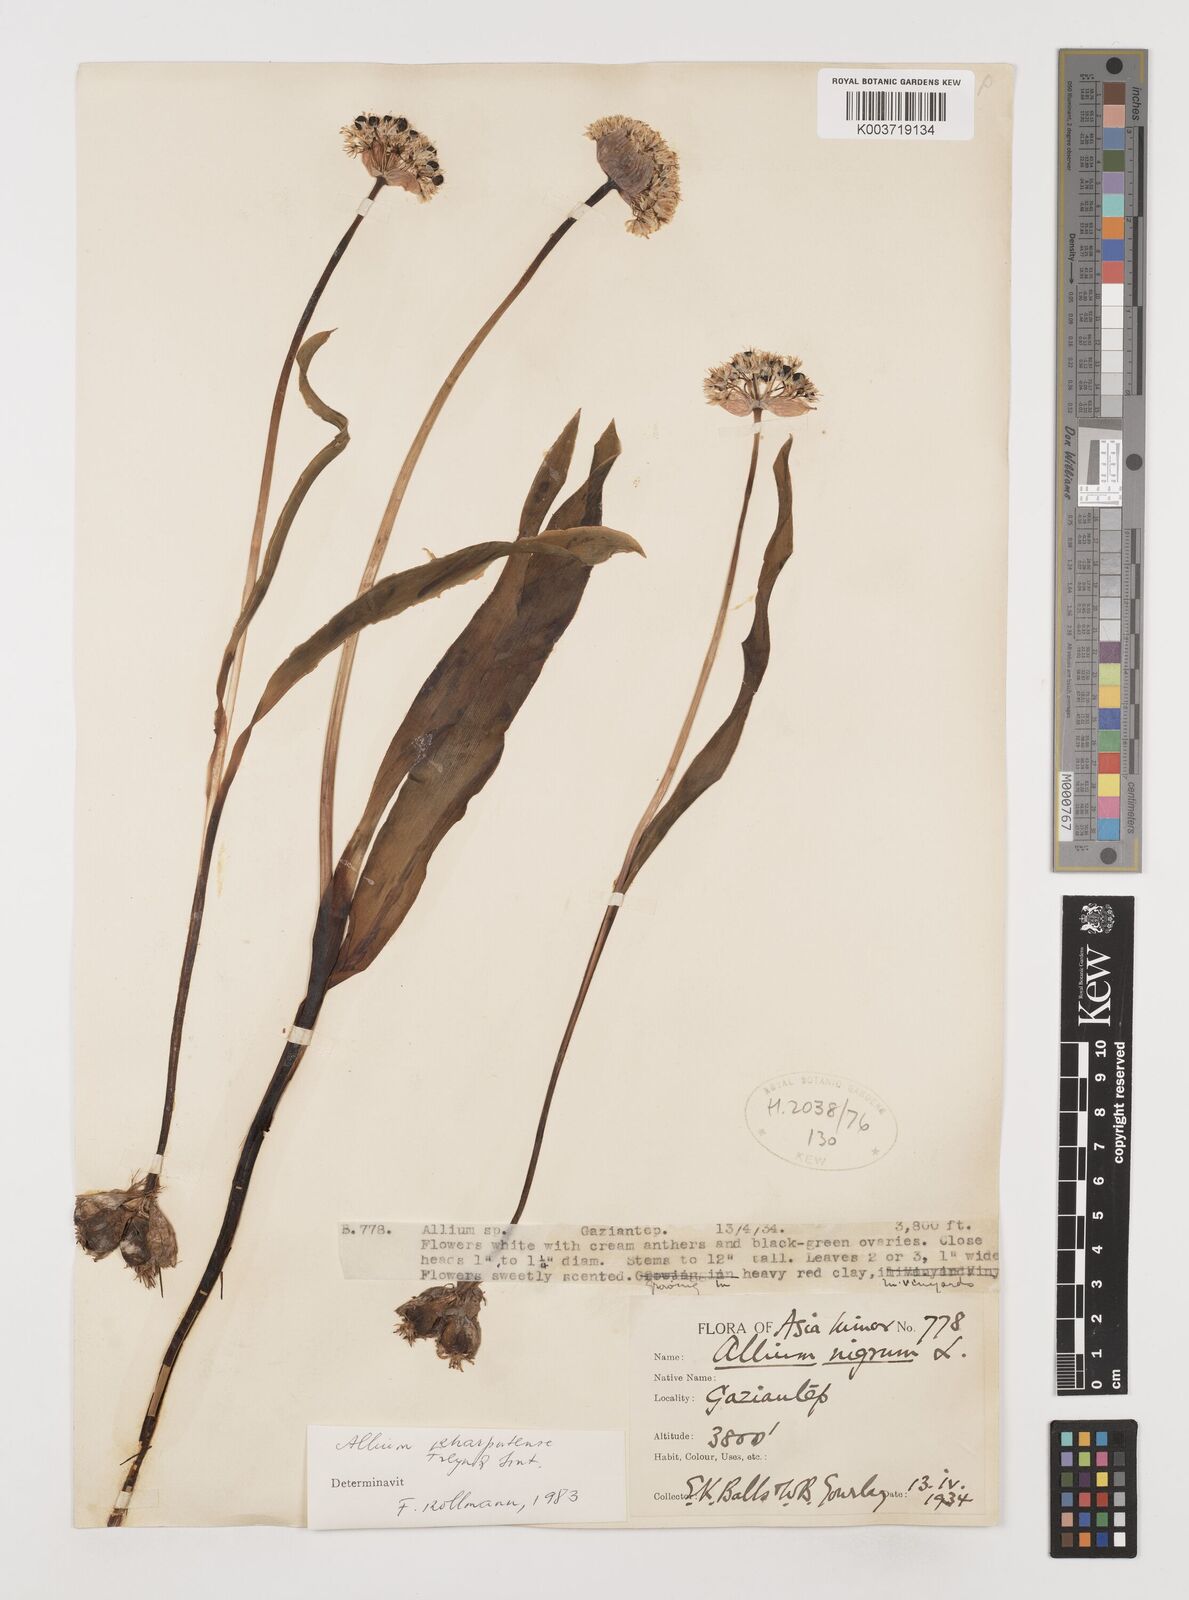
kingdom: Plantae
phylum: Tracheophyta
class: Liliopsida
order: Asparagales
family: Amaryllidaceae
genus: Allium
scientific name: Allium kharputense
